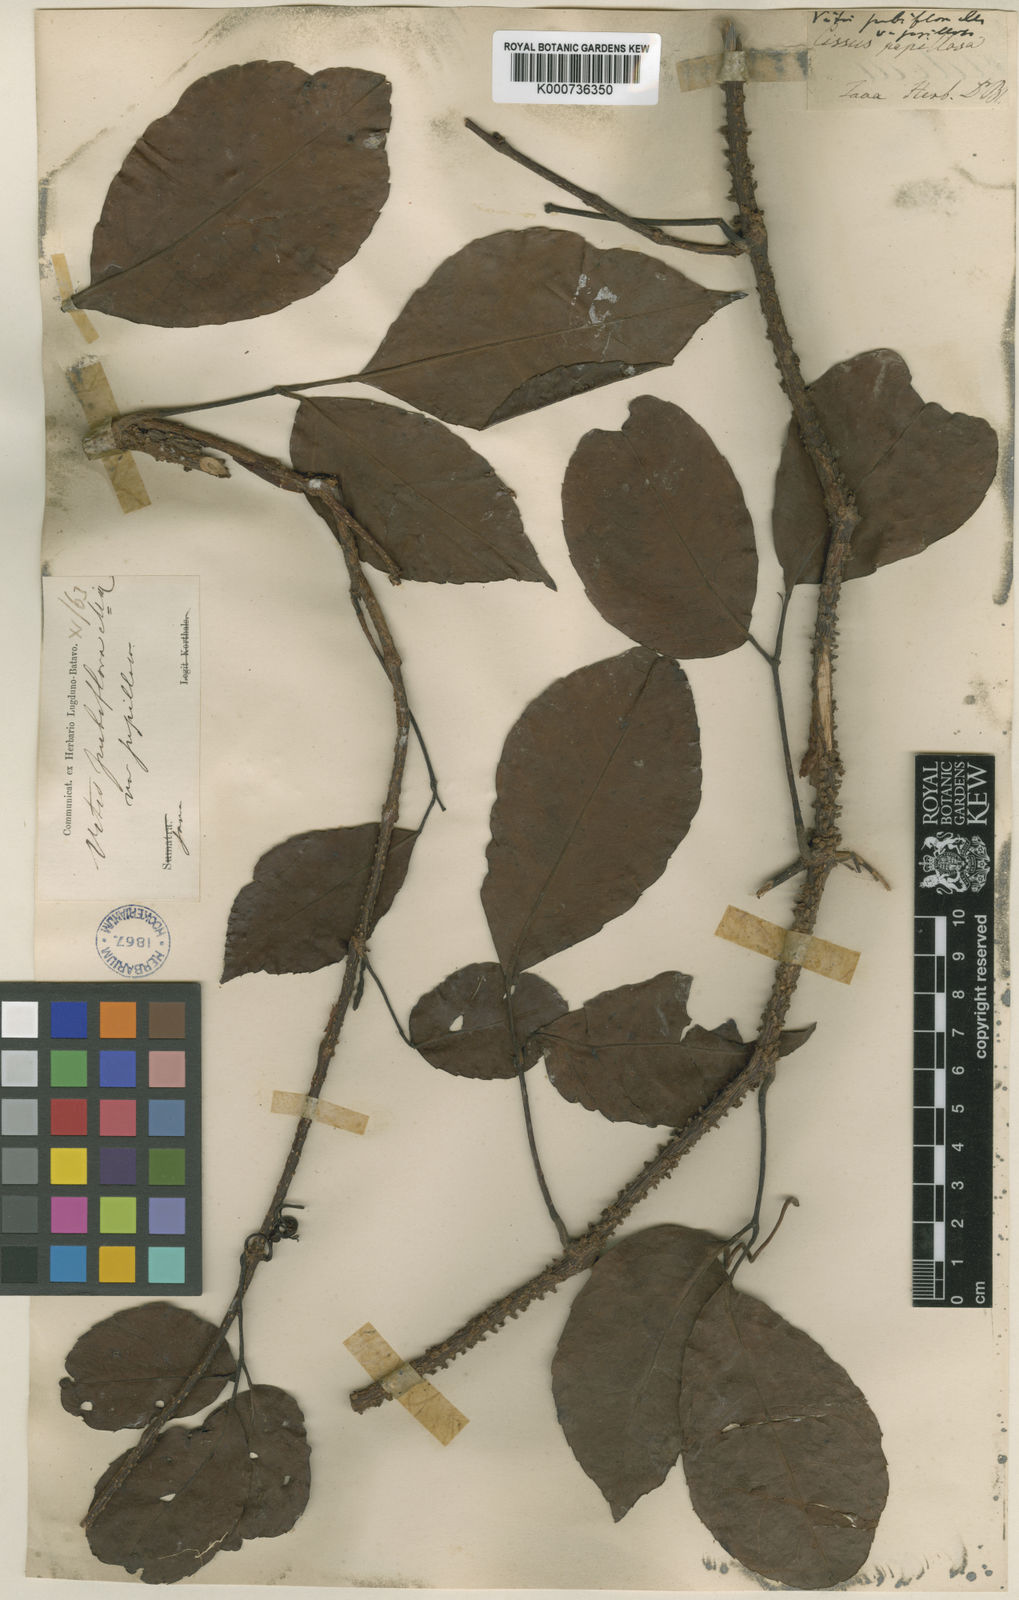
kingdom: Plantae
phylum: Tracheophyta
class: Magnoliopsida
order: Vitales
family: Vitaceae
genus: Tetrastigma
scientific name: Tetrastigma papillosum
